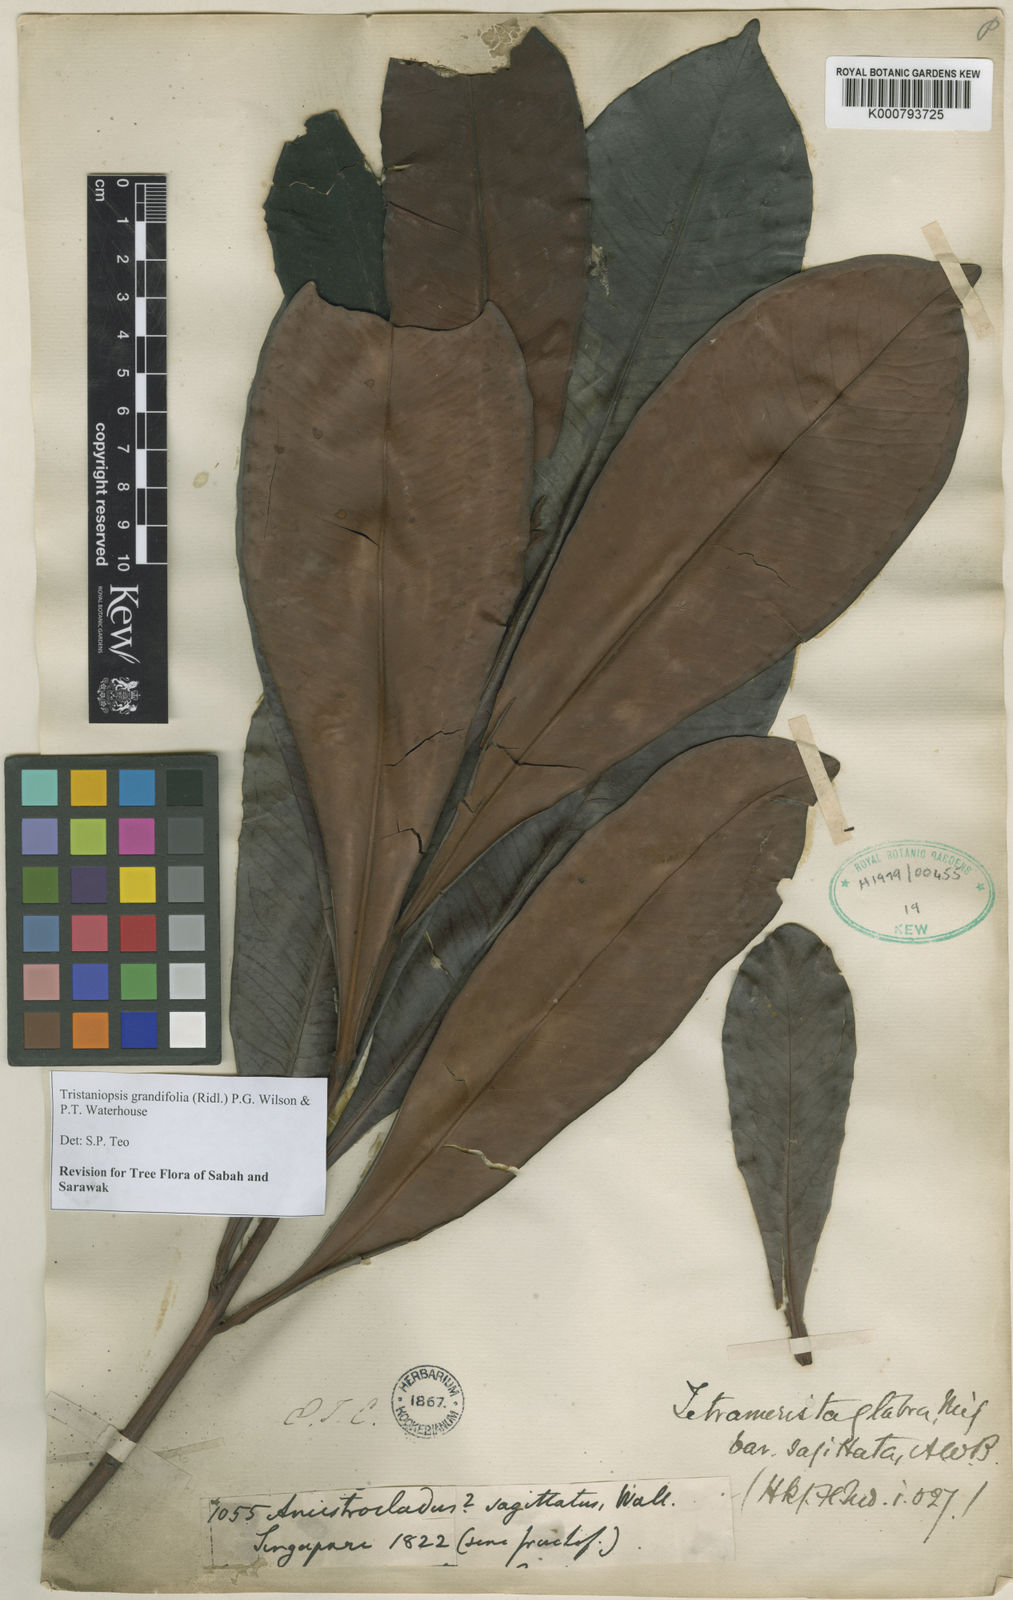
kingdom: Plantae
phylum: Tracheophyta
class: Magnoliopsida
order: Myrtales
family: Myrtaceae
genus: Tristaniopsis
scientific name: Tristaniopsis merguensis
